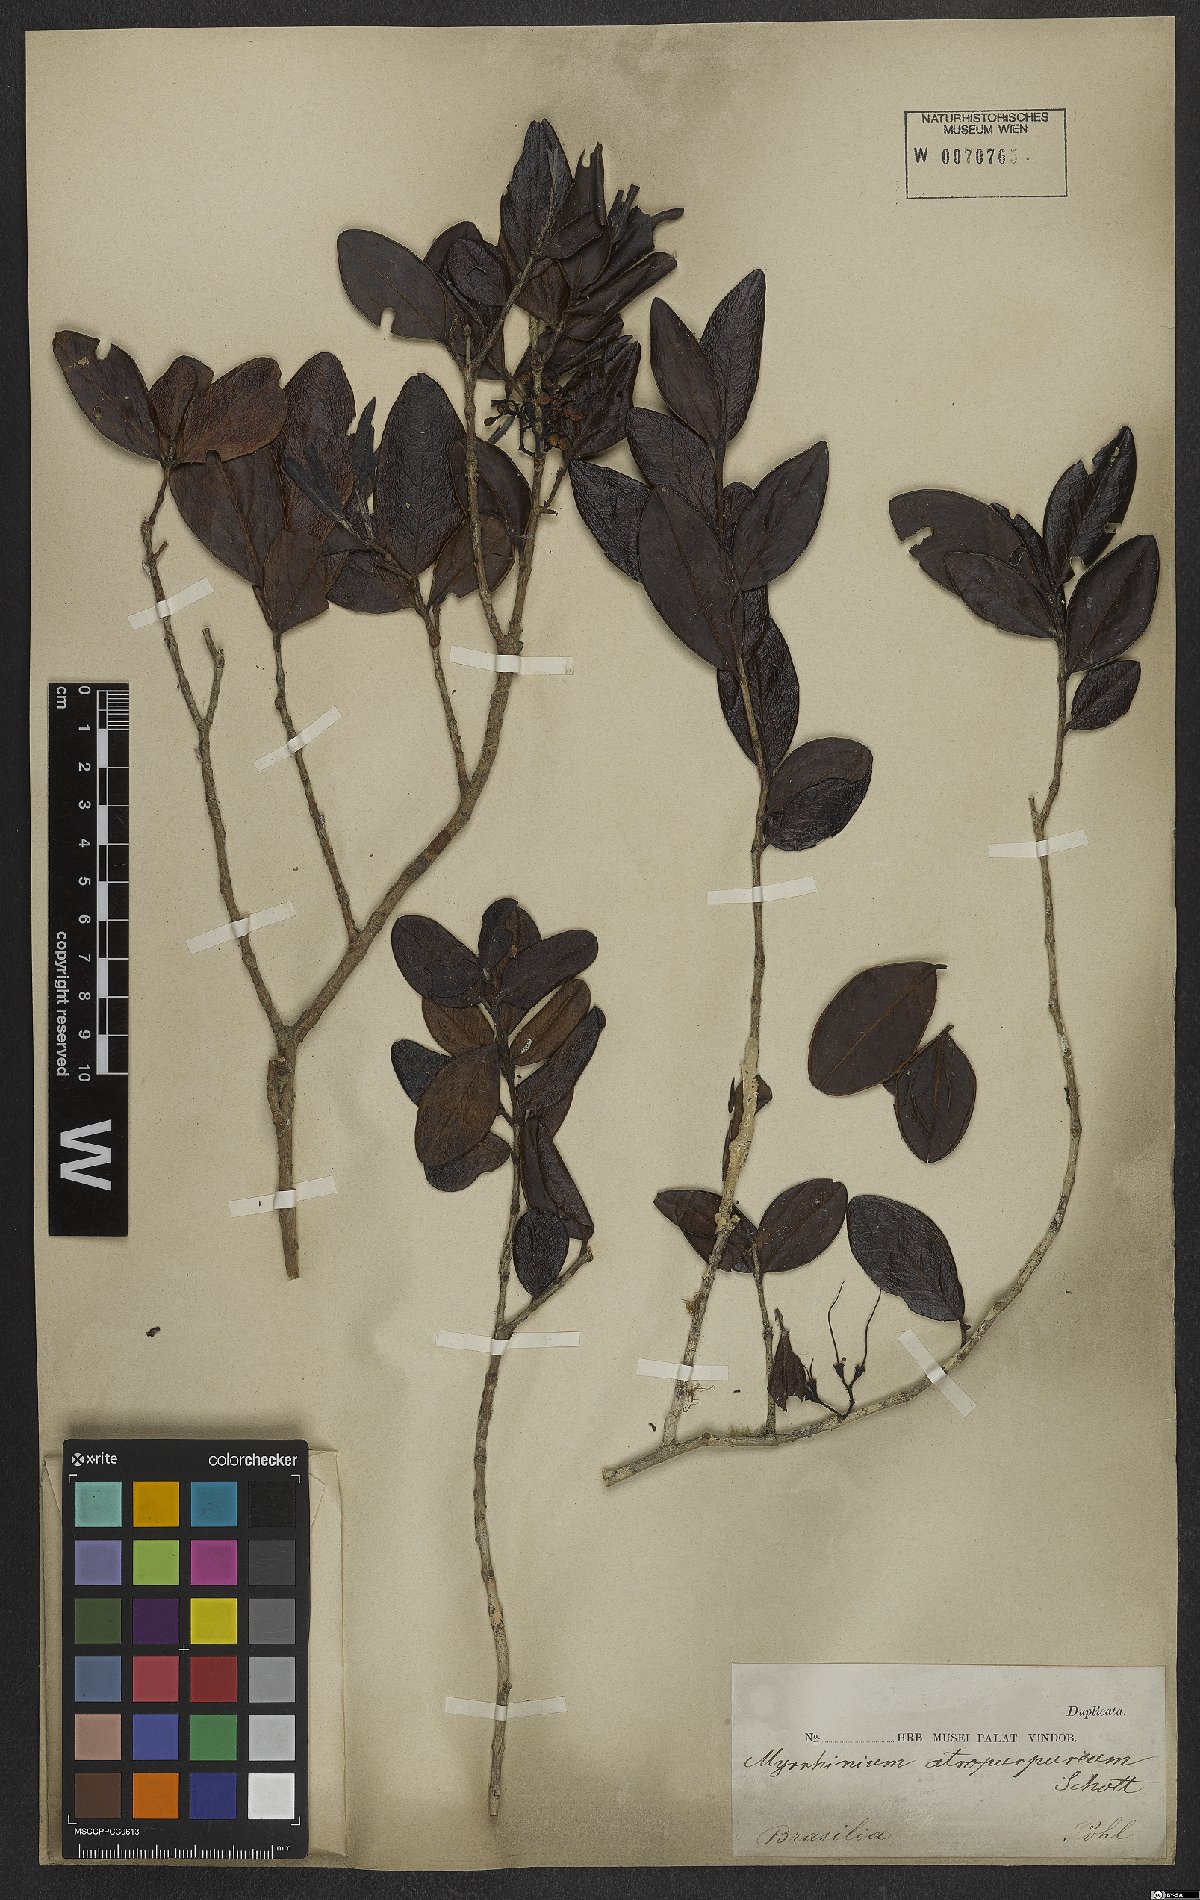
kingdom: Plantae
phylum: Tracheophyta
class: Magnoliopsida
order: Myrtales
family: Myrtaceae
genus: Myrrhinium
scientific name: Myrrhinium atropurpureum
